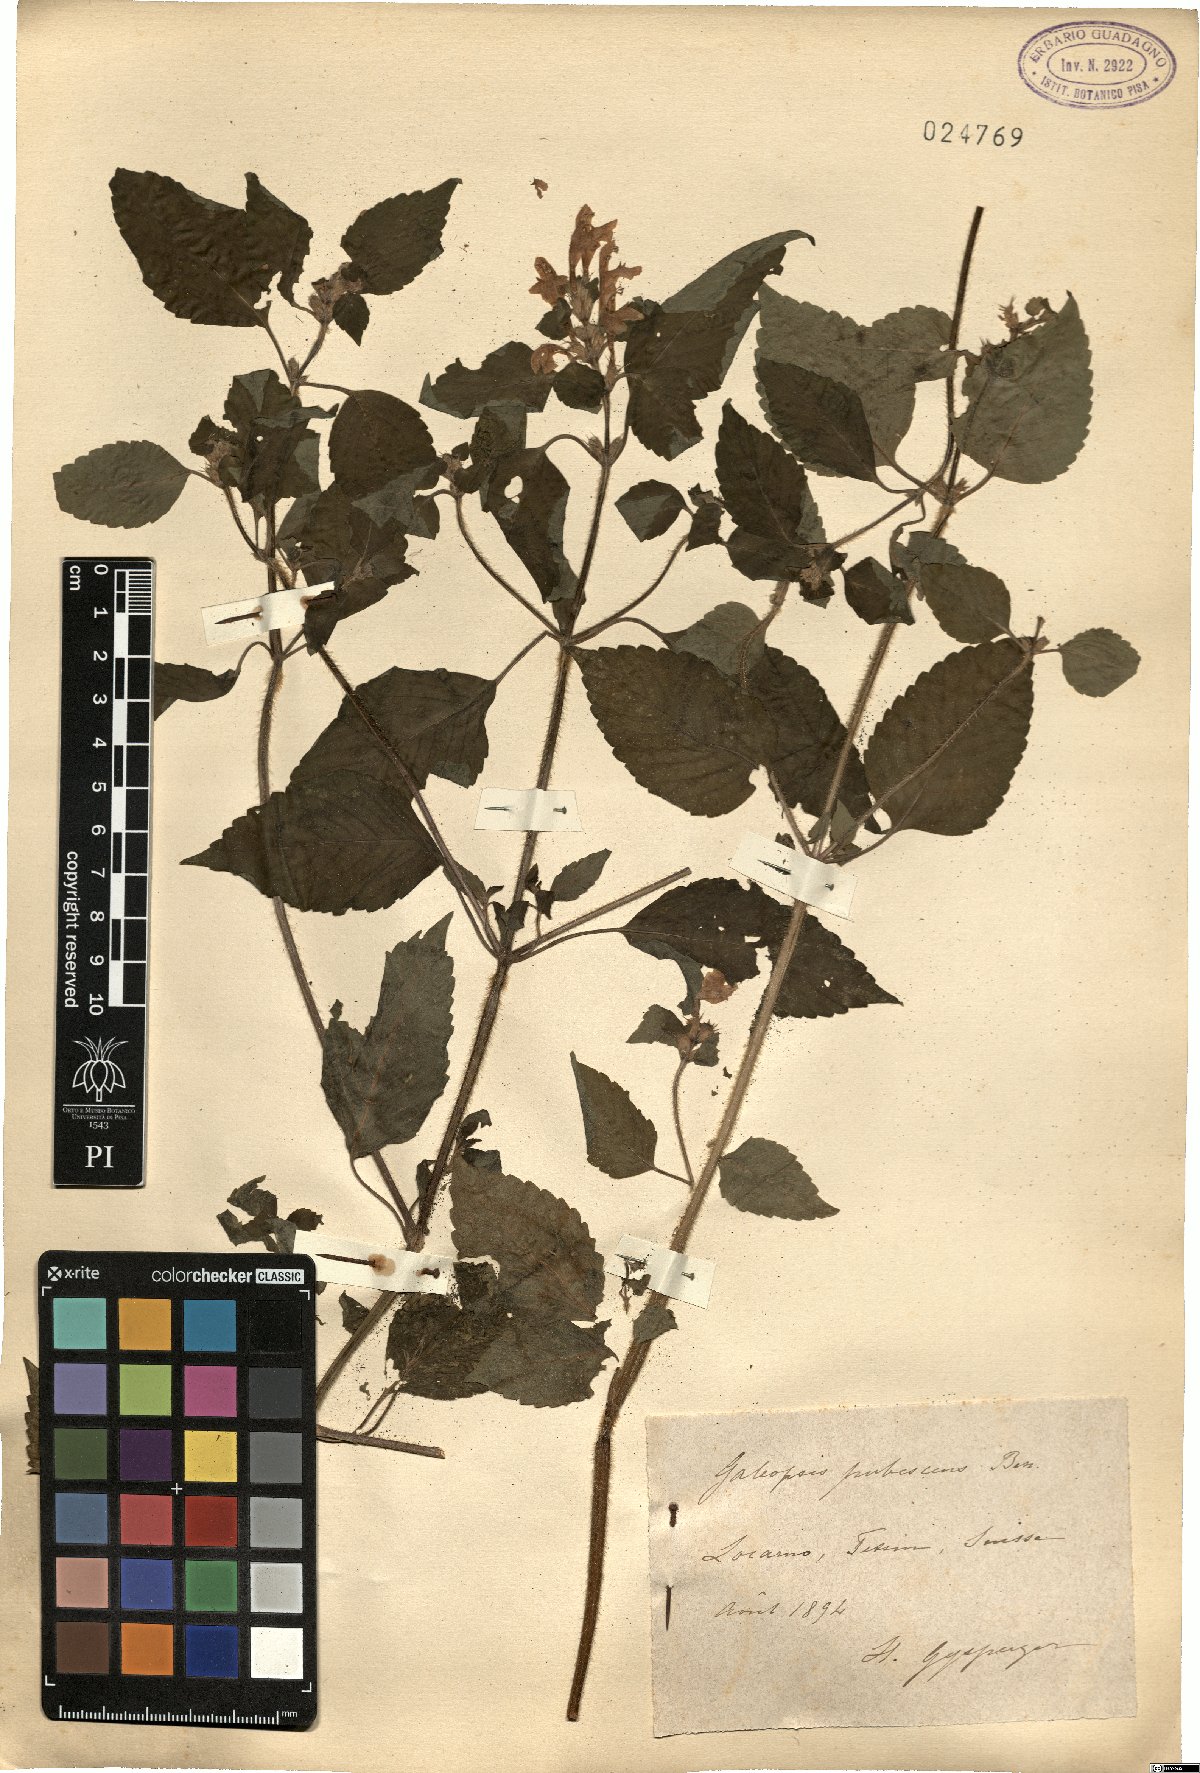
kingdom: Plantae
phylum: Tracheophyta
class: Magnoliopsida
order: Lamiales
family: Lamiaceae
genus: Galeopsis
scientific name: Galeopsis pubescens
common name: Downy hemp-nettle
